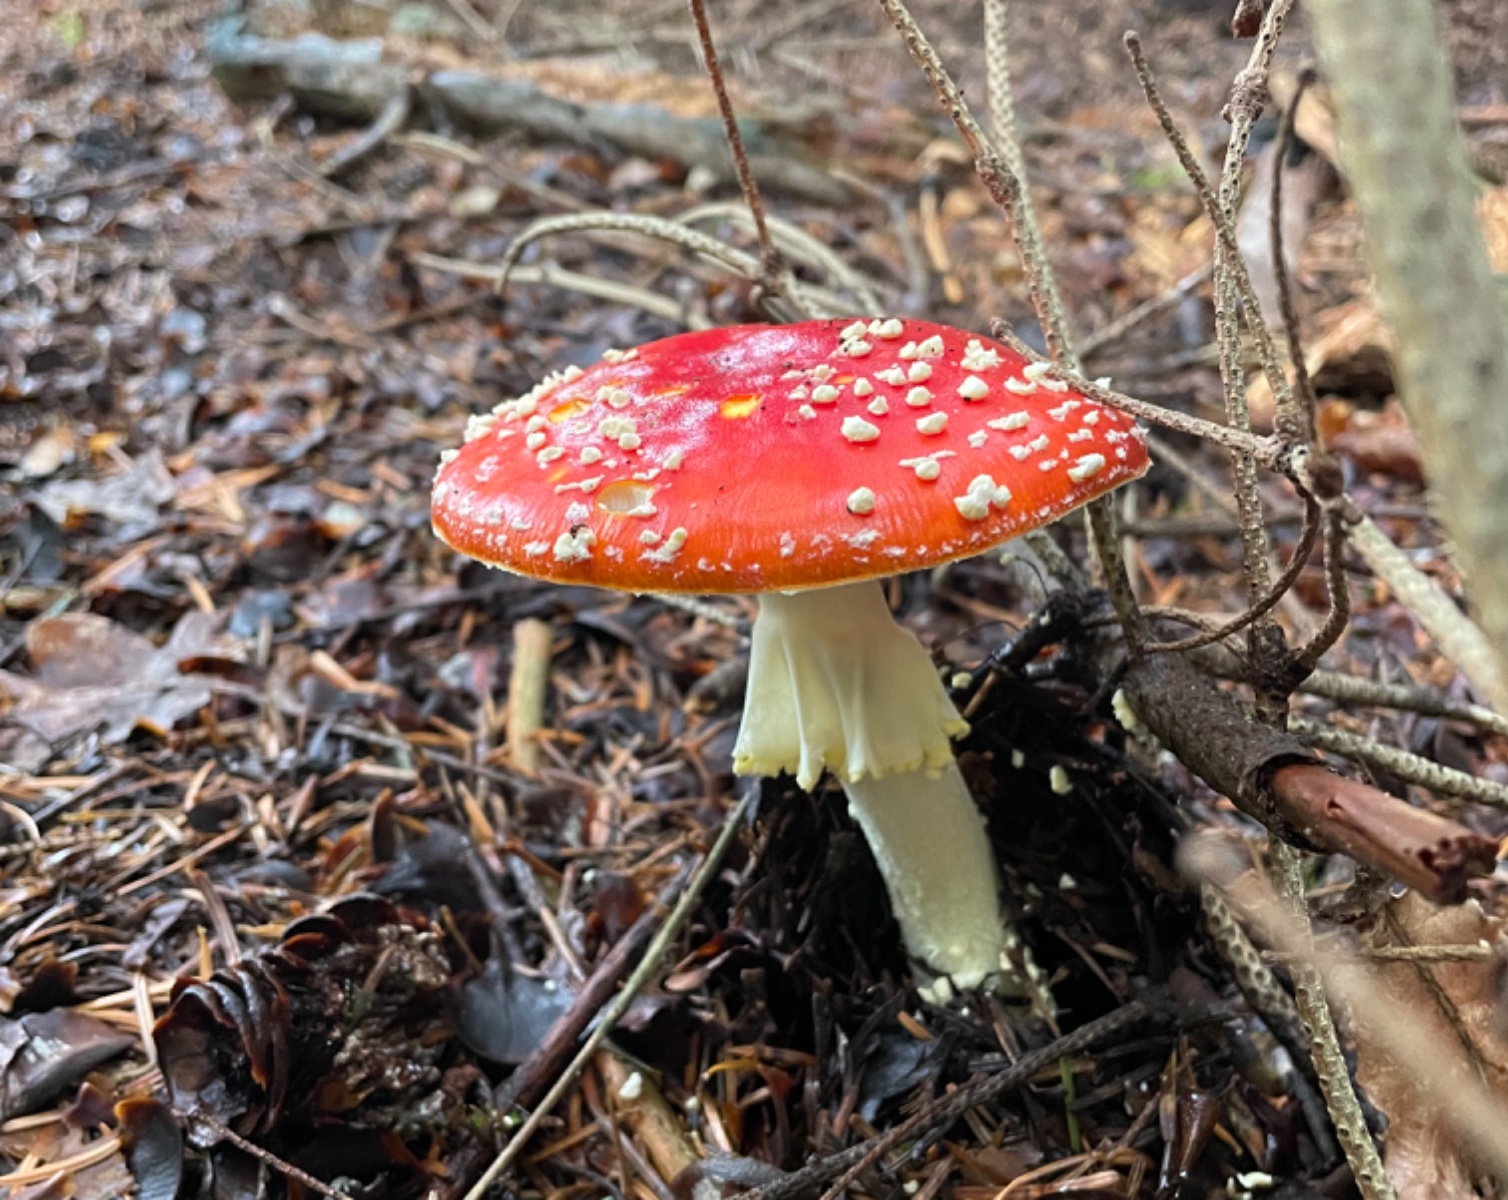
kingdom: Fungi
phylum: Basidiomycota
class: Agaricomycetes
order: Agaricales
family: Amanitaceae
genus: Amanita
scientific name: Amanita muscaria
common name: rød fluesvamp
